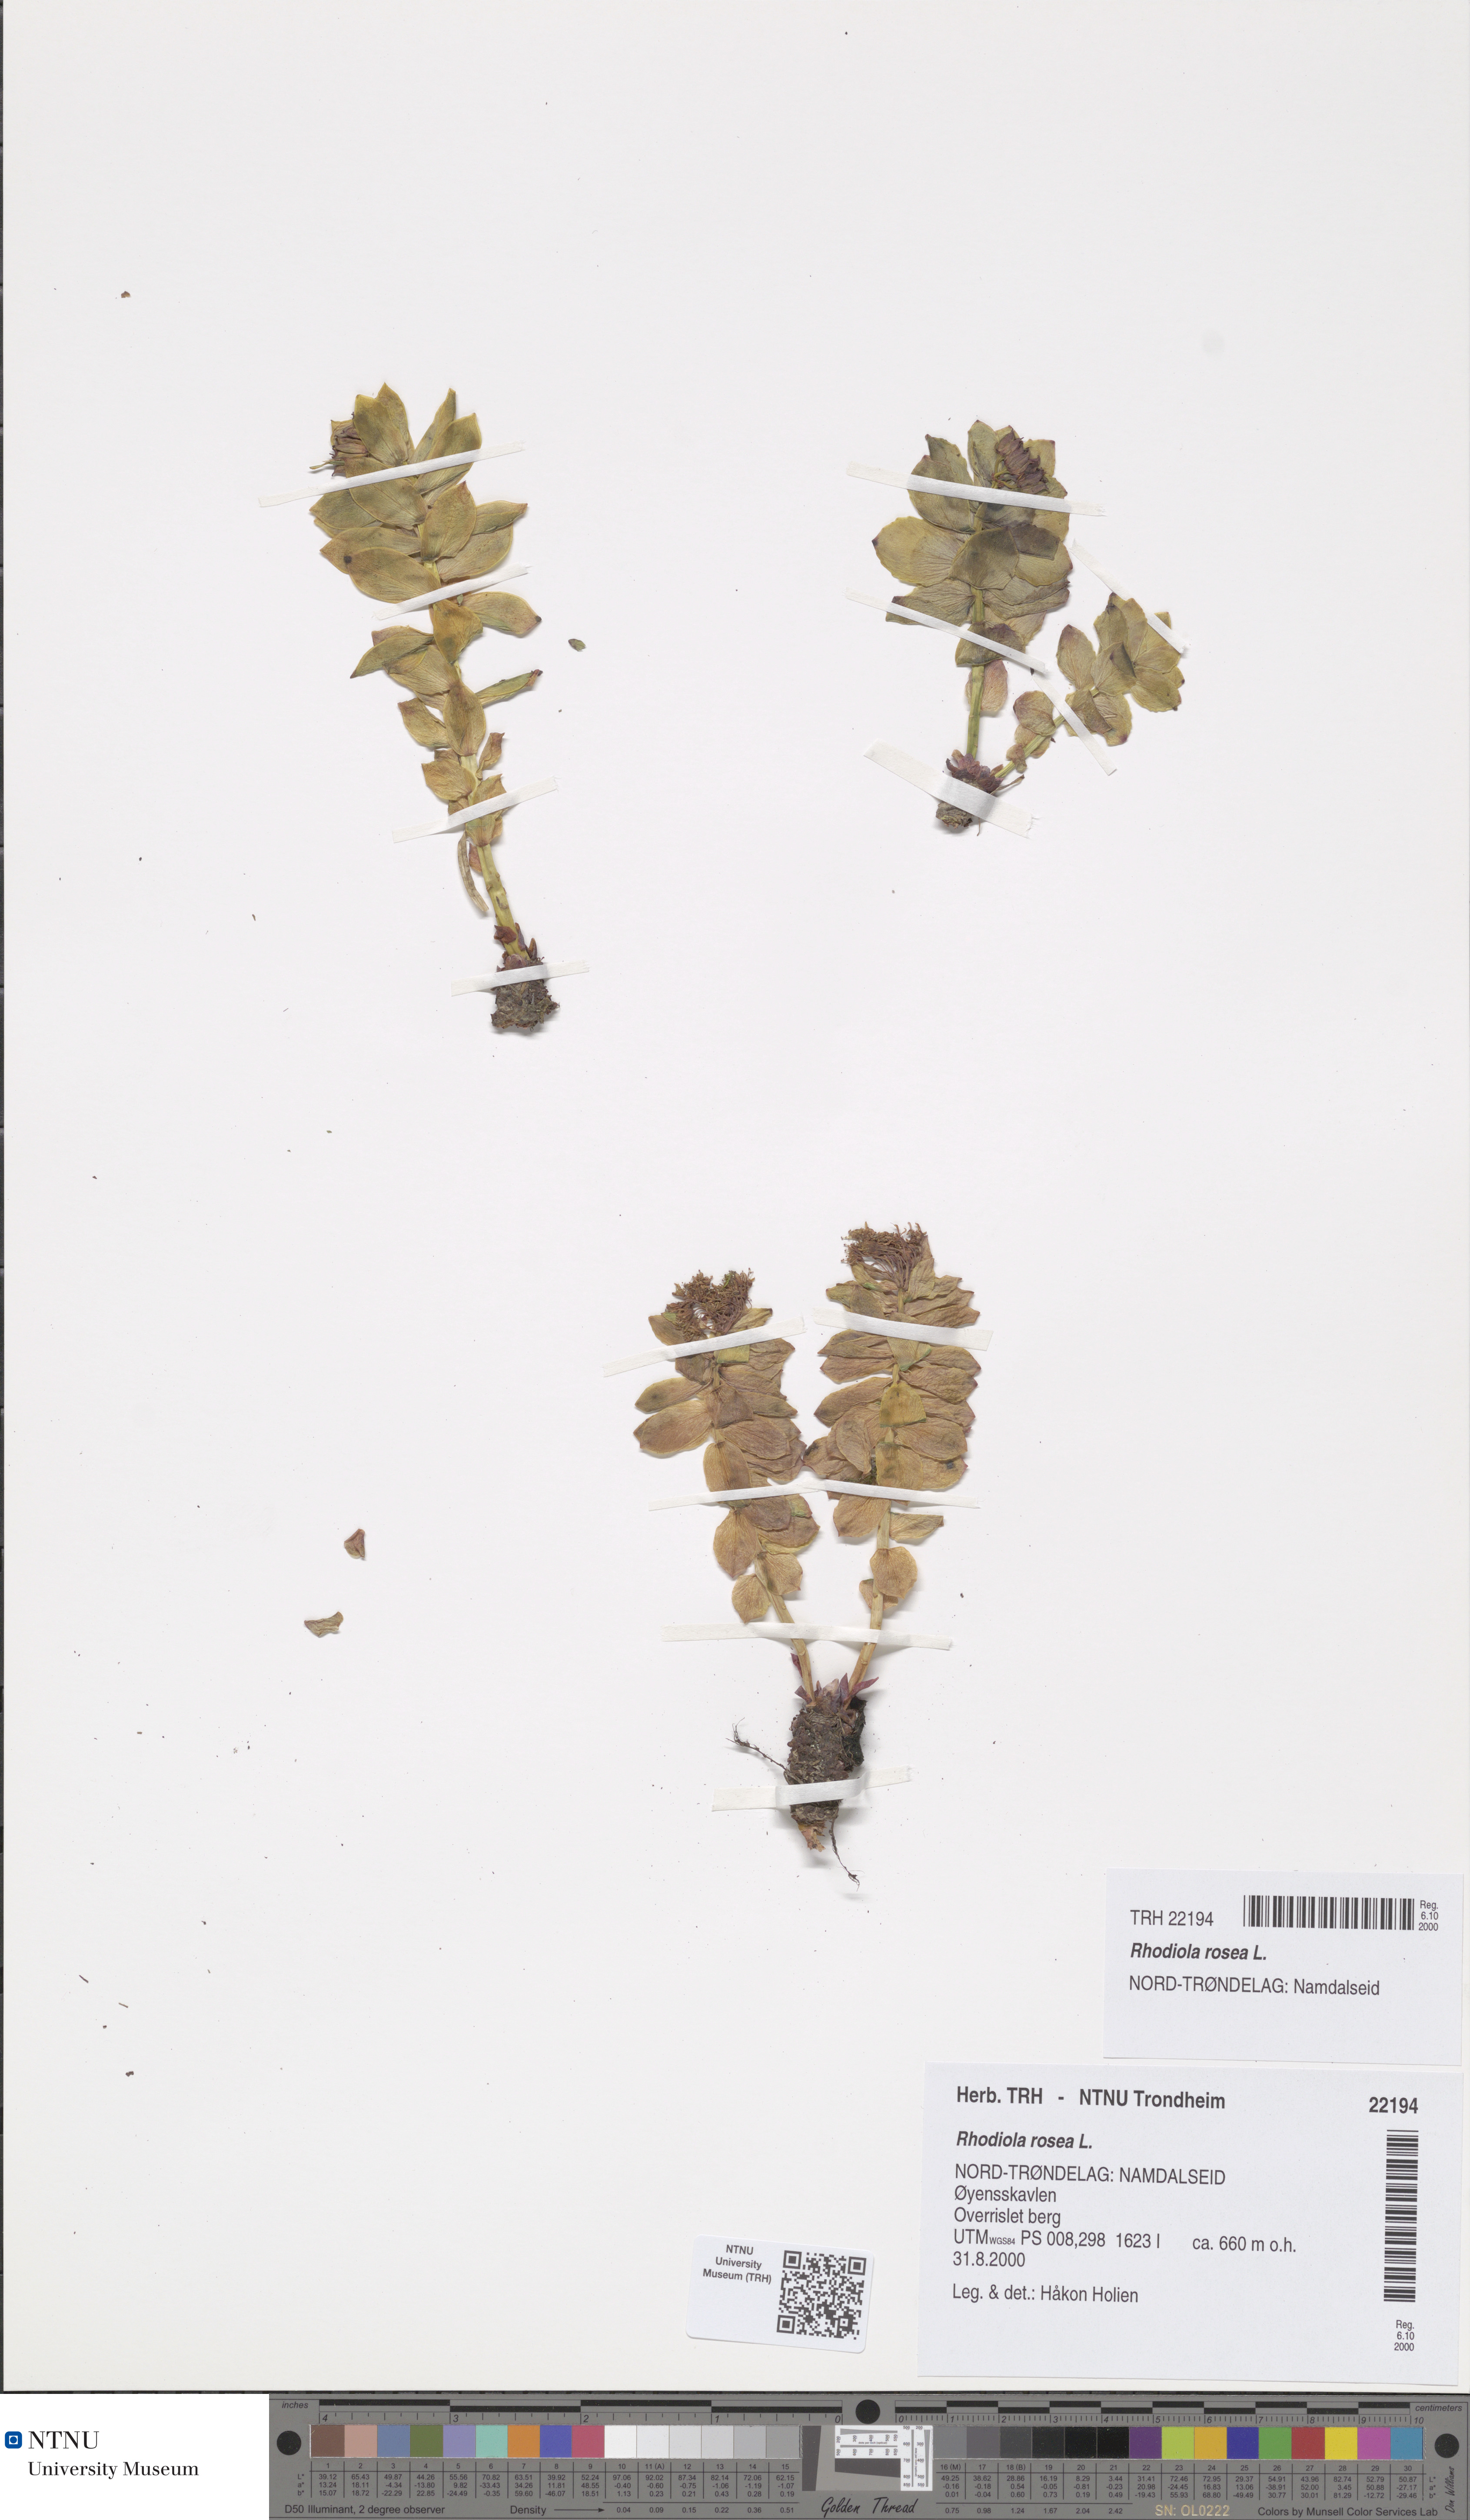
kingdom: Plantae
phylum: Tracheophyta
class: Magnoliopsida
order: Saxifragales
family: Crassulaceae
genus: Rhodiola
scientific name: Rhodiola rosea
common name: Roseroot
